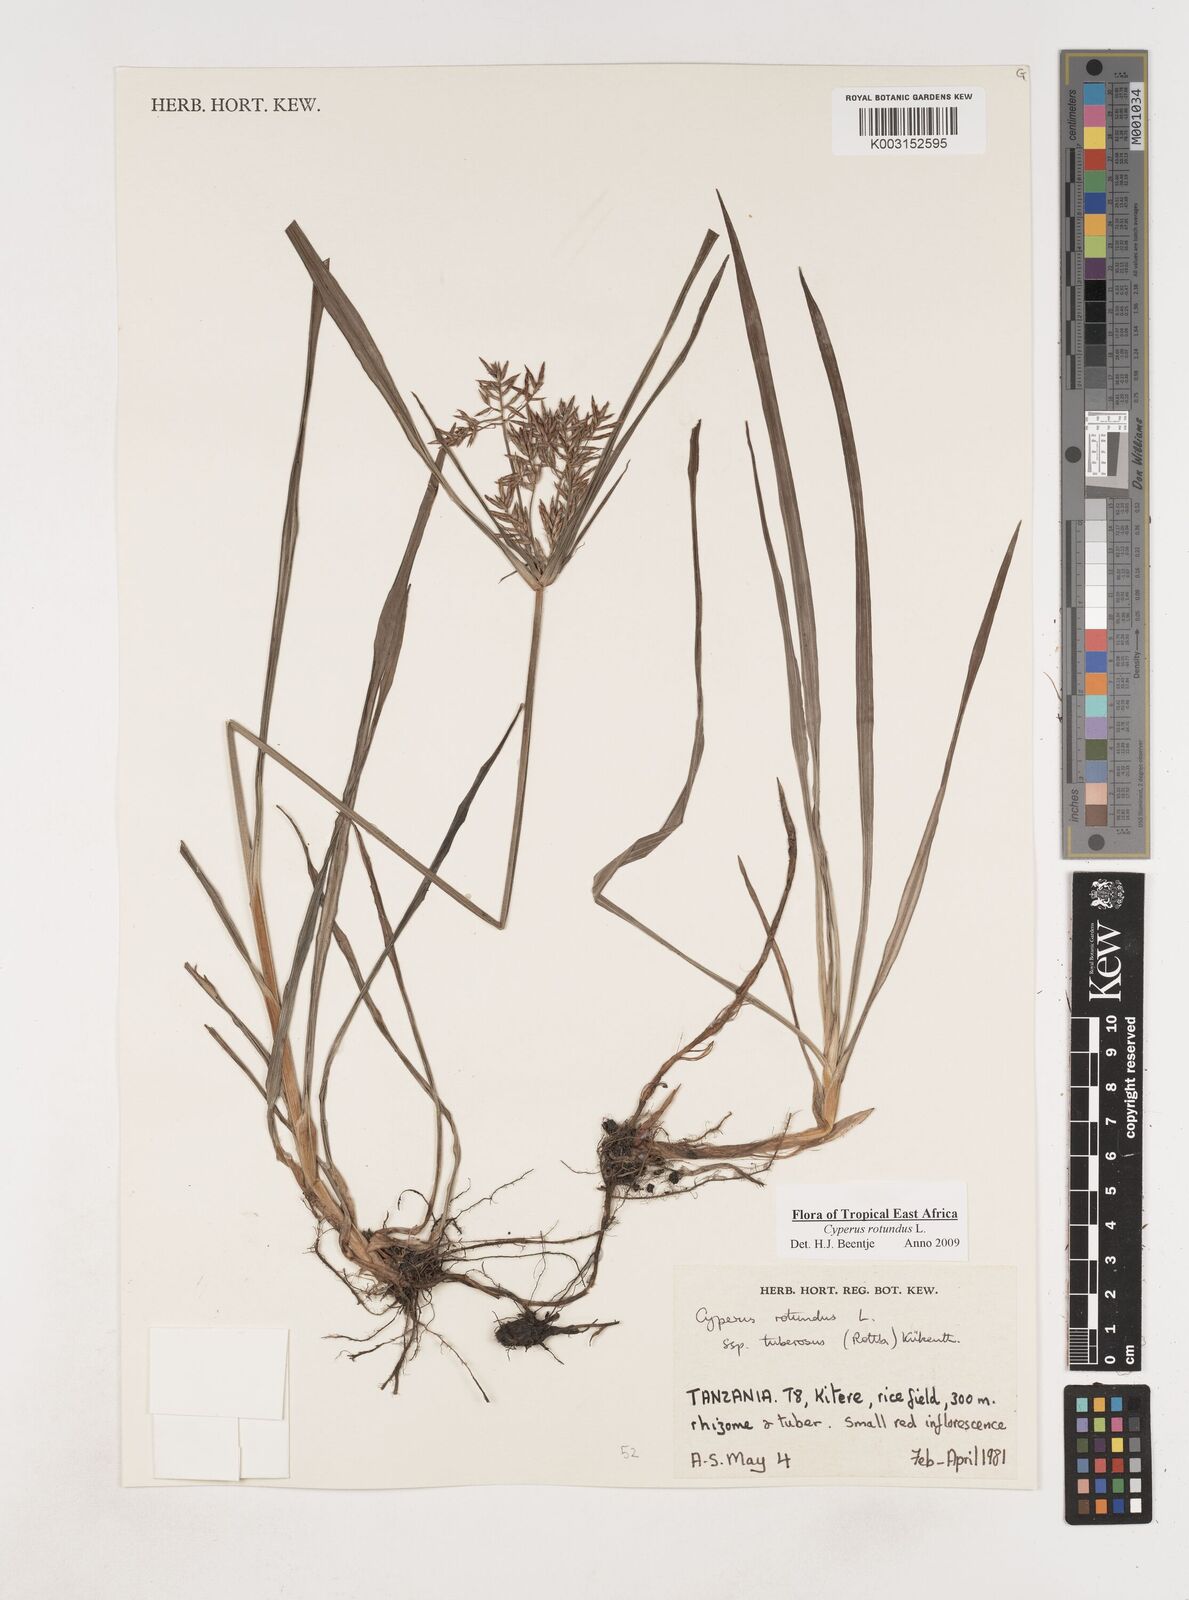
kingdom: Plantae
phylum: Tracheophyta
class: Liliopsida
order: Poales
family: Cyperaceae
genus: Cyperus
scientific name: Cyperus tuberosus
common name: Nut grass
